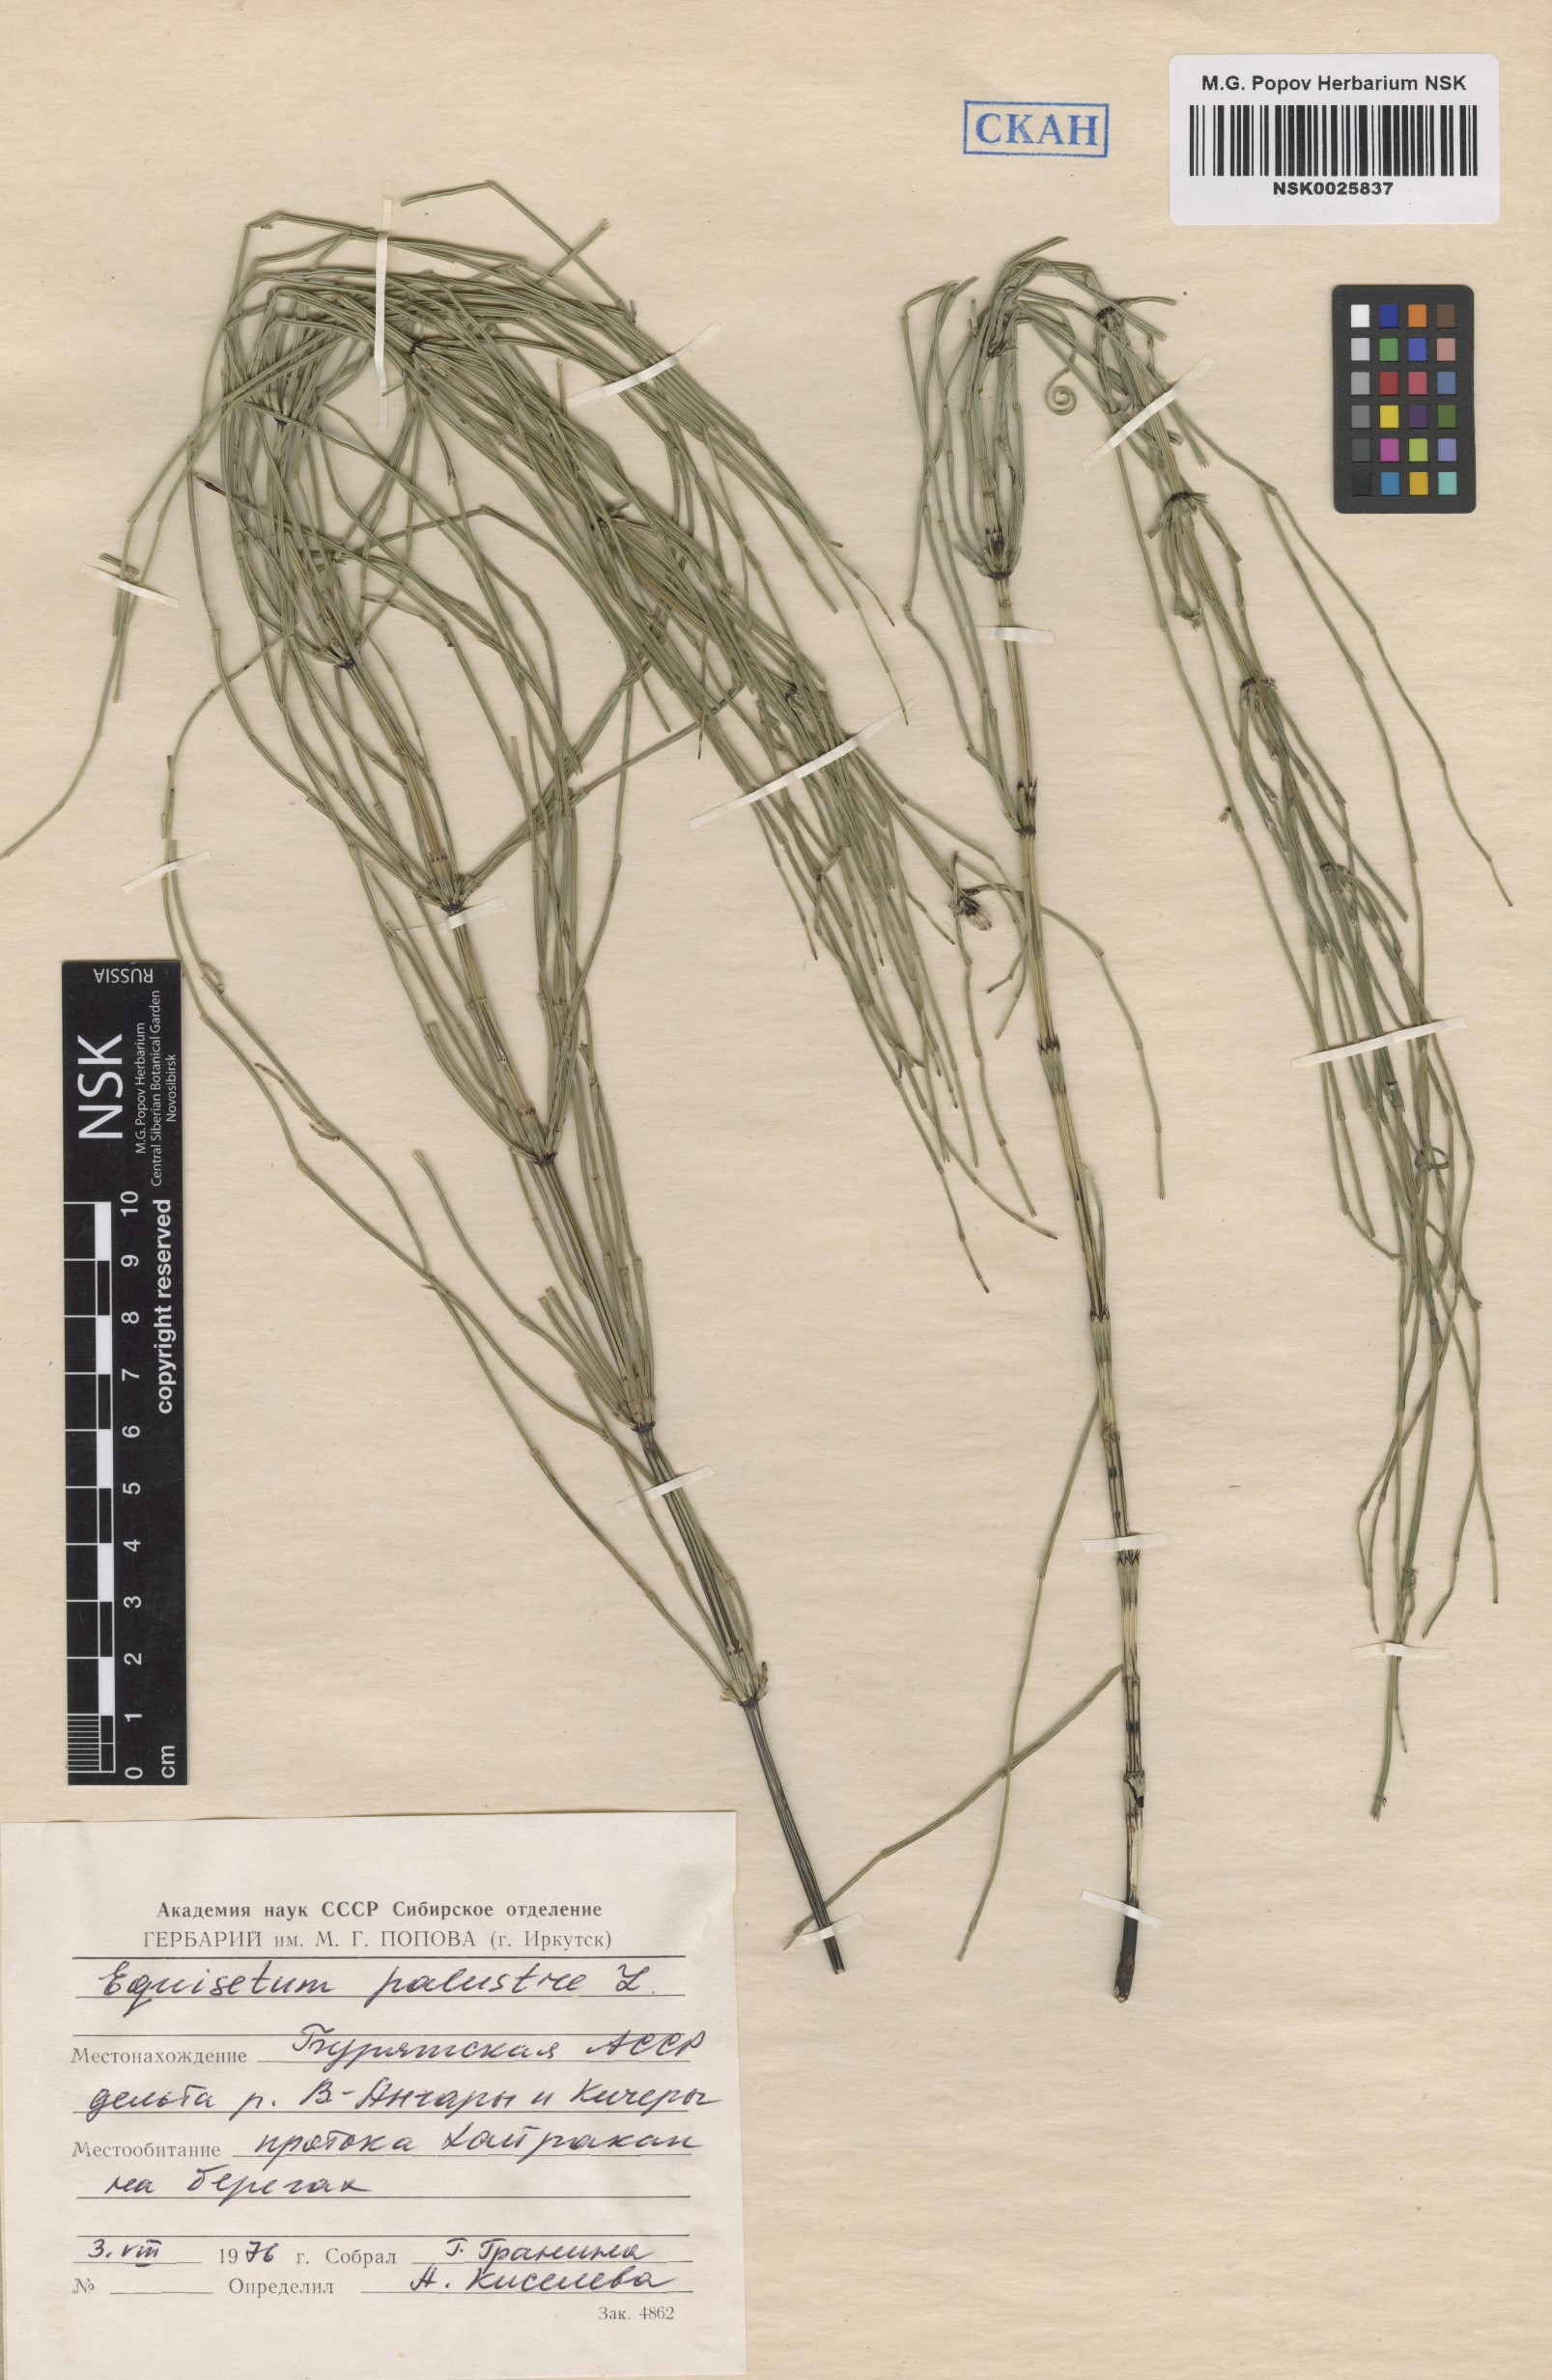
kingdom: Plantae
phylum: Tracheophyta
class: Polypodiopsida
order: Equisetales
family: Equisetaceae
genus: Equisetum
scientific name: Equisetum palustre
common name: Marsh horsetail
